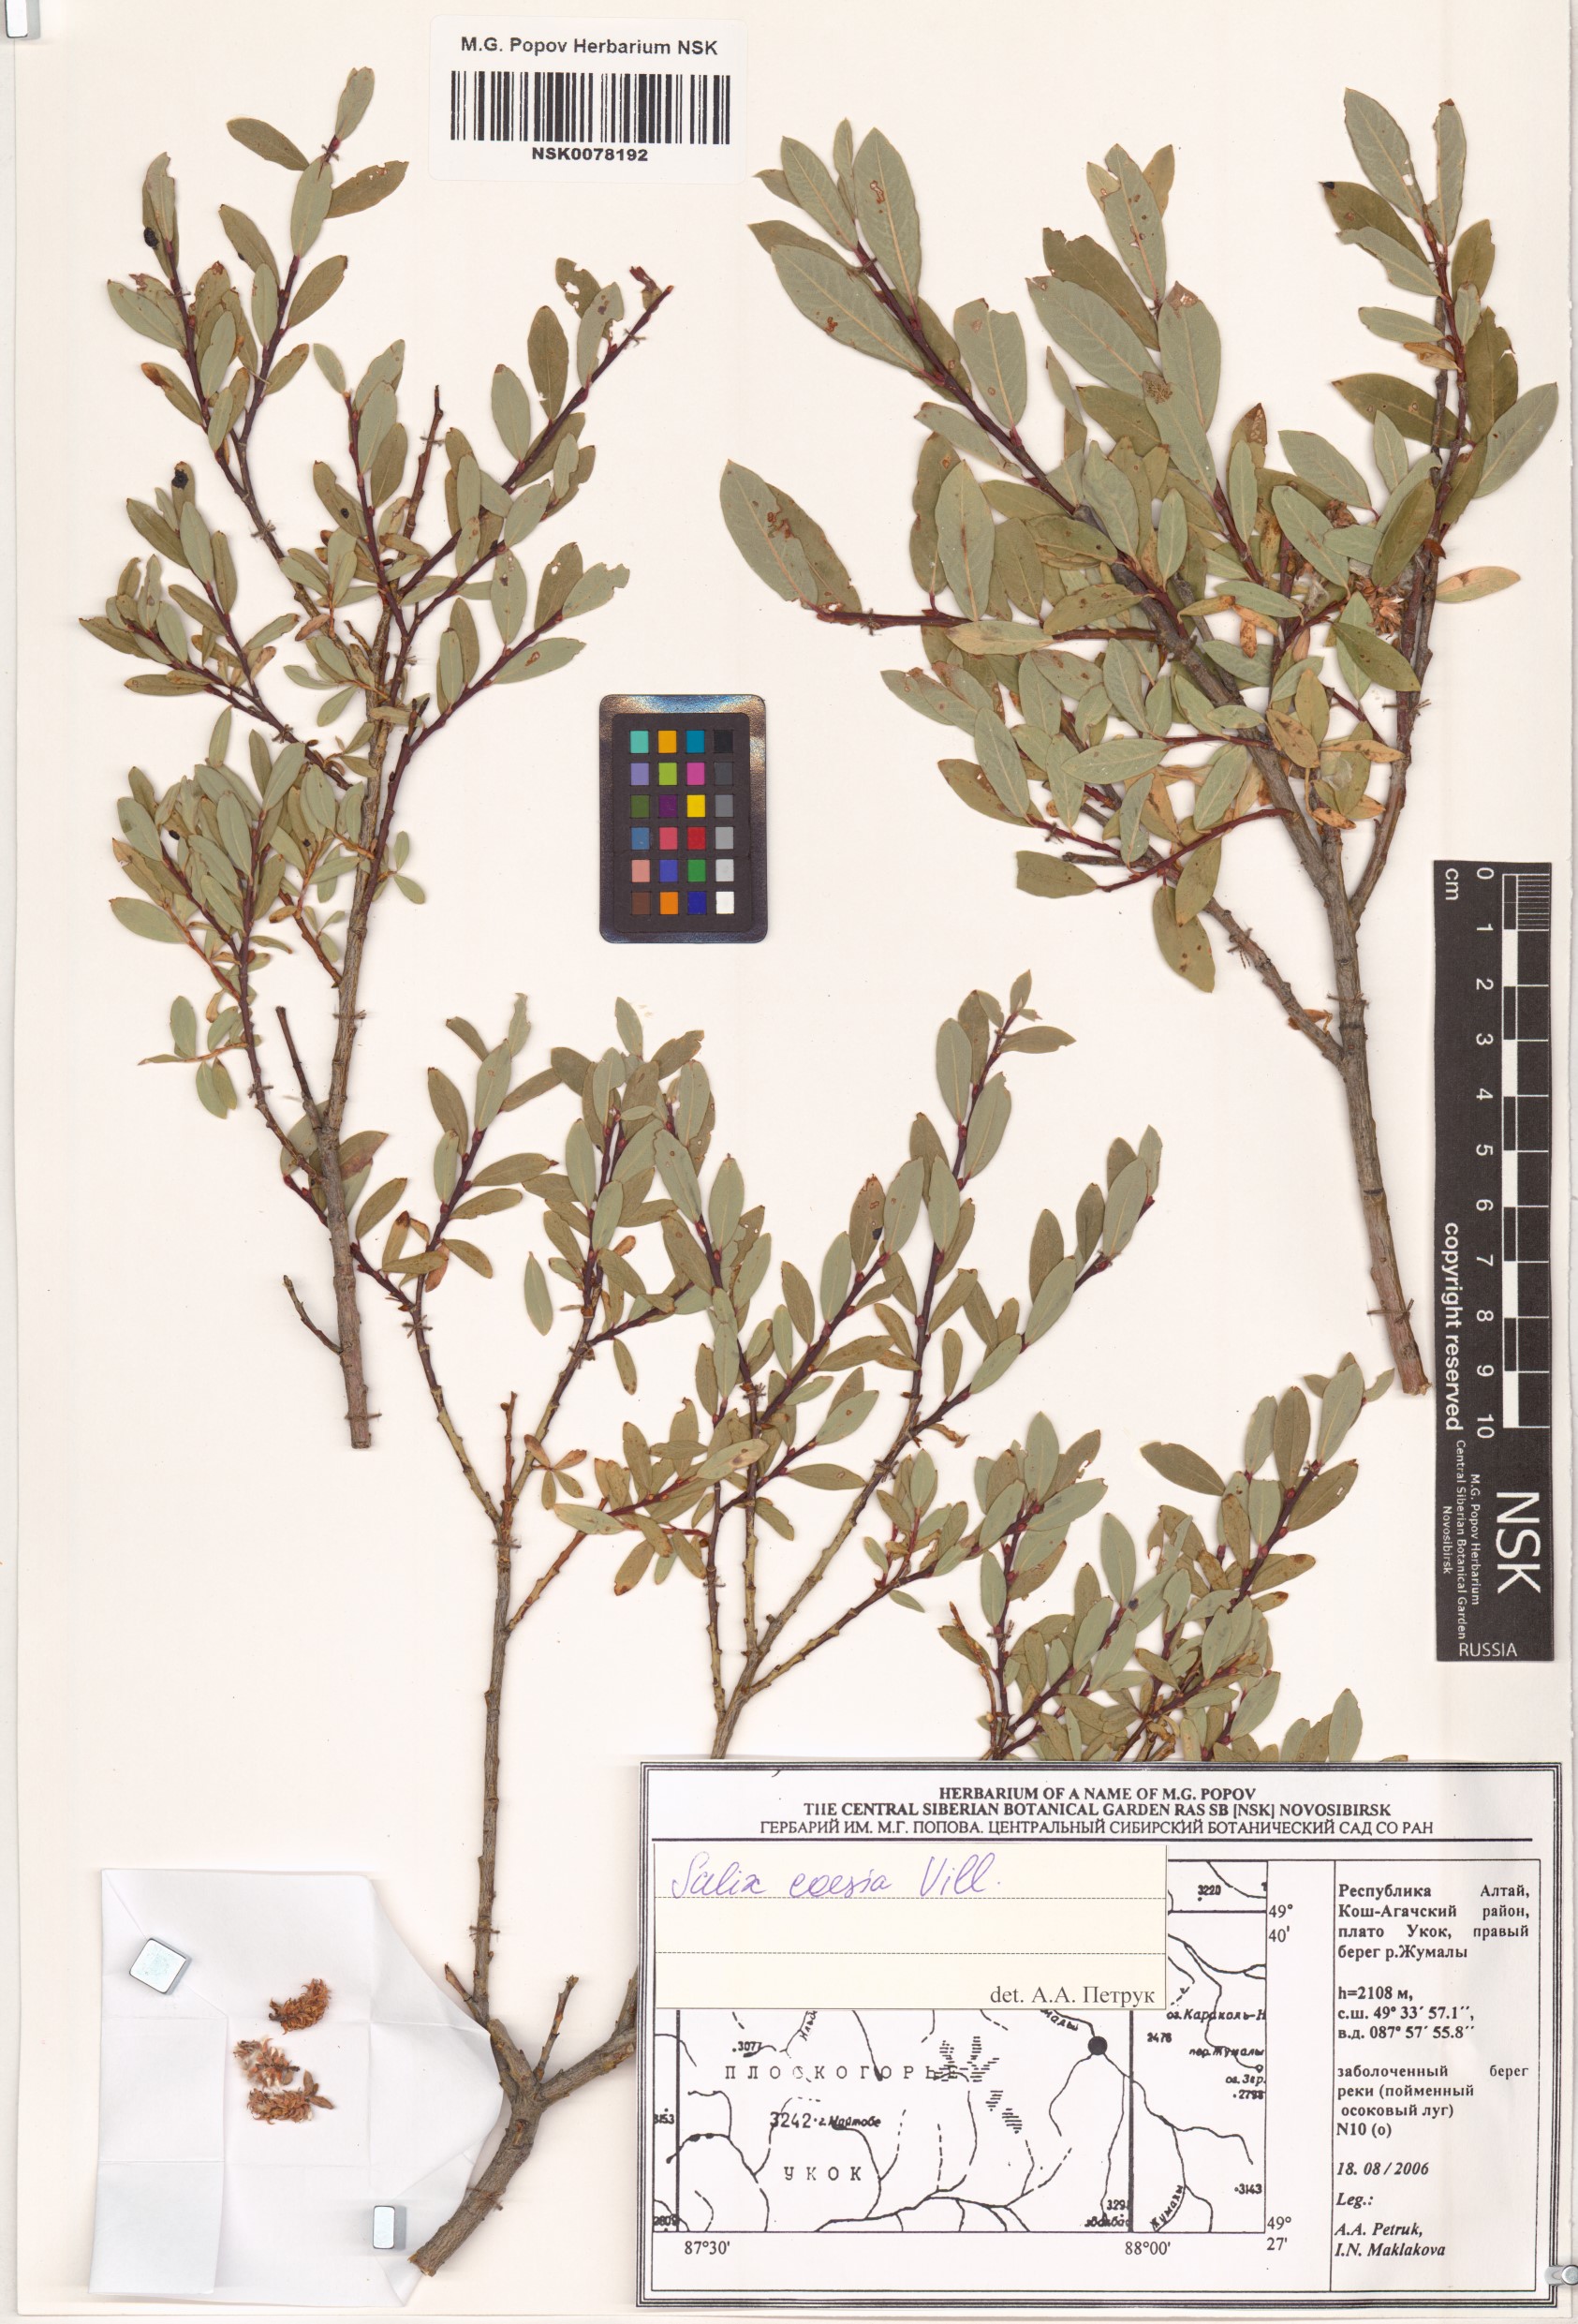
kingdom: Plantae
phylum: Tracheophyta
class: Magnoliopsida
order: Malpighiales
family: Salicaceae
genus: Salix
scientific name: Salix caesia
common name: Blue willow
